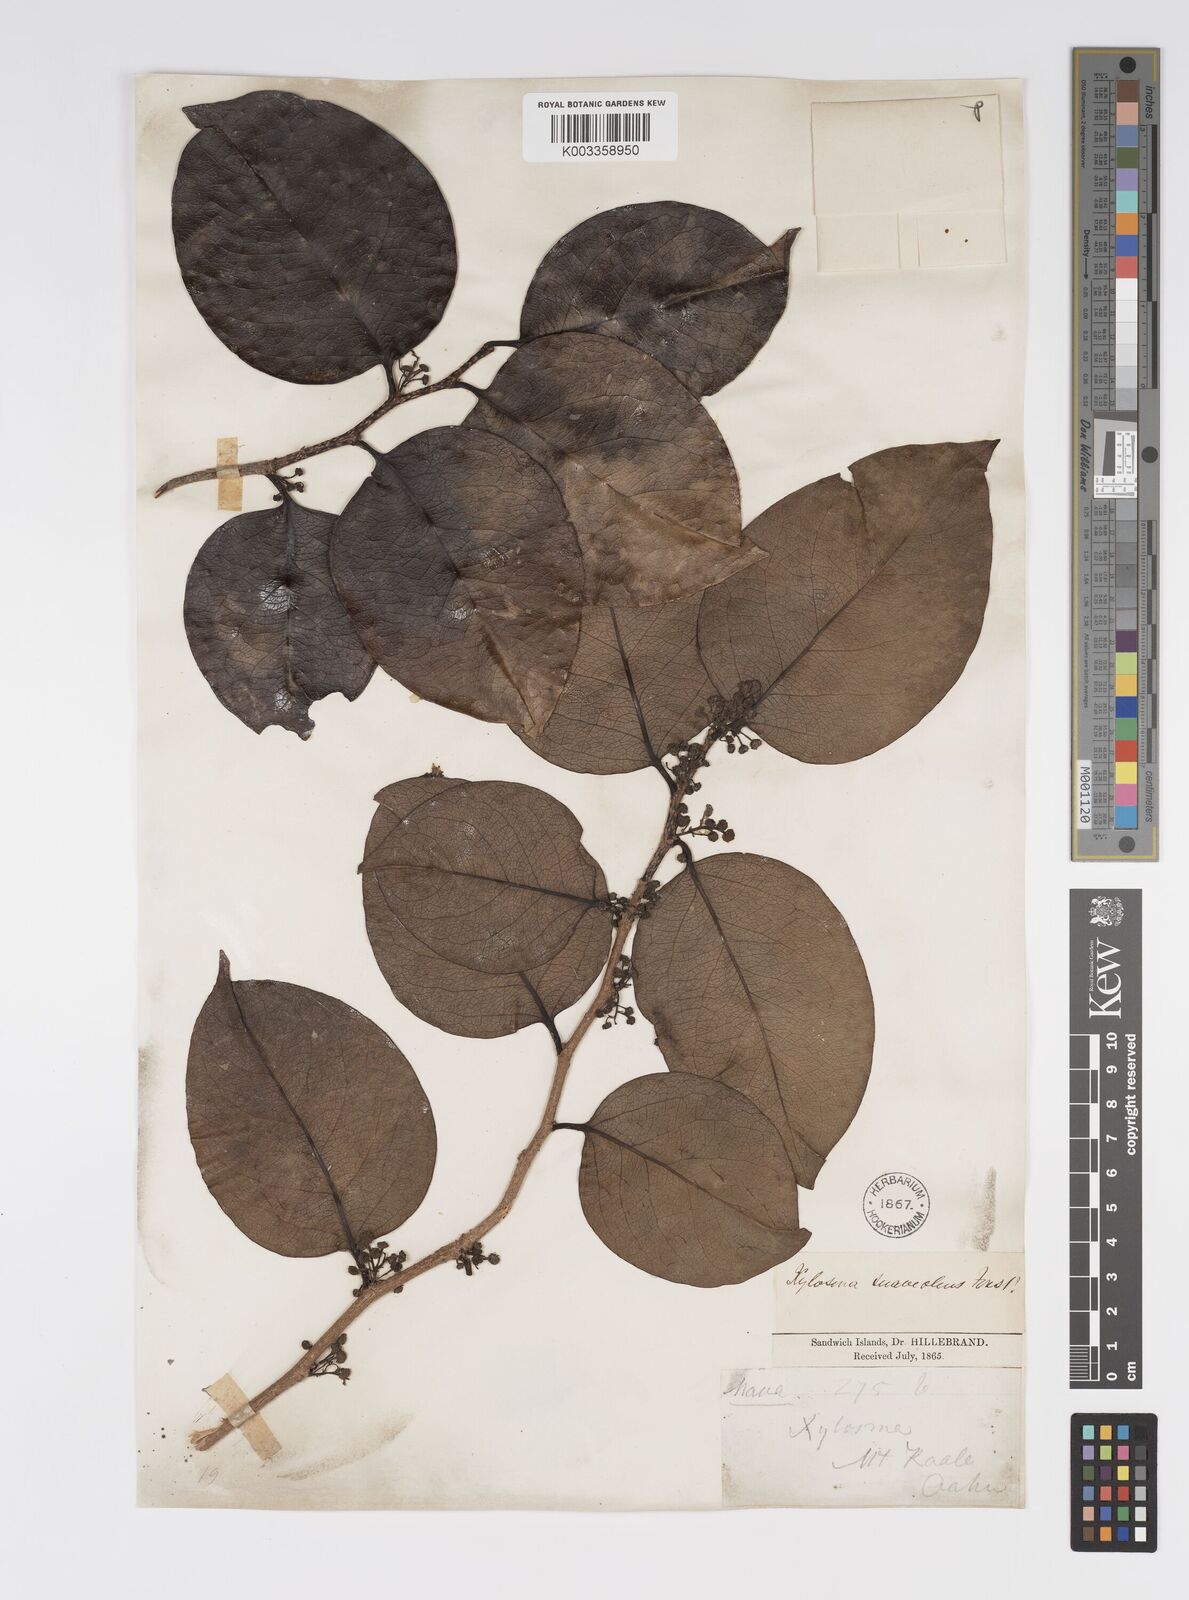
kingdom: Plantae
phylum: Tracheophyta
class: Magnoliopsida
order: Malpighiales
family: Salicaceae
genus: Xylosma
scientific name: Xylosma hawaiense
